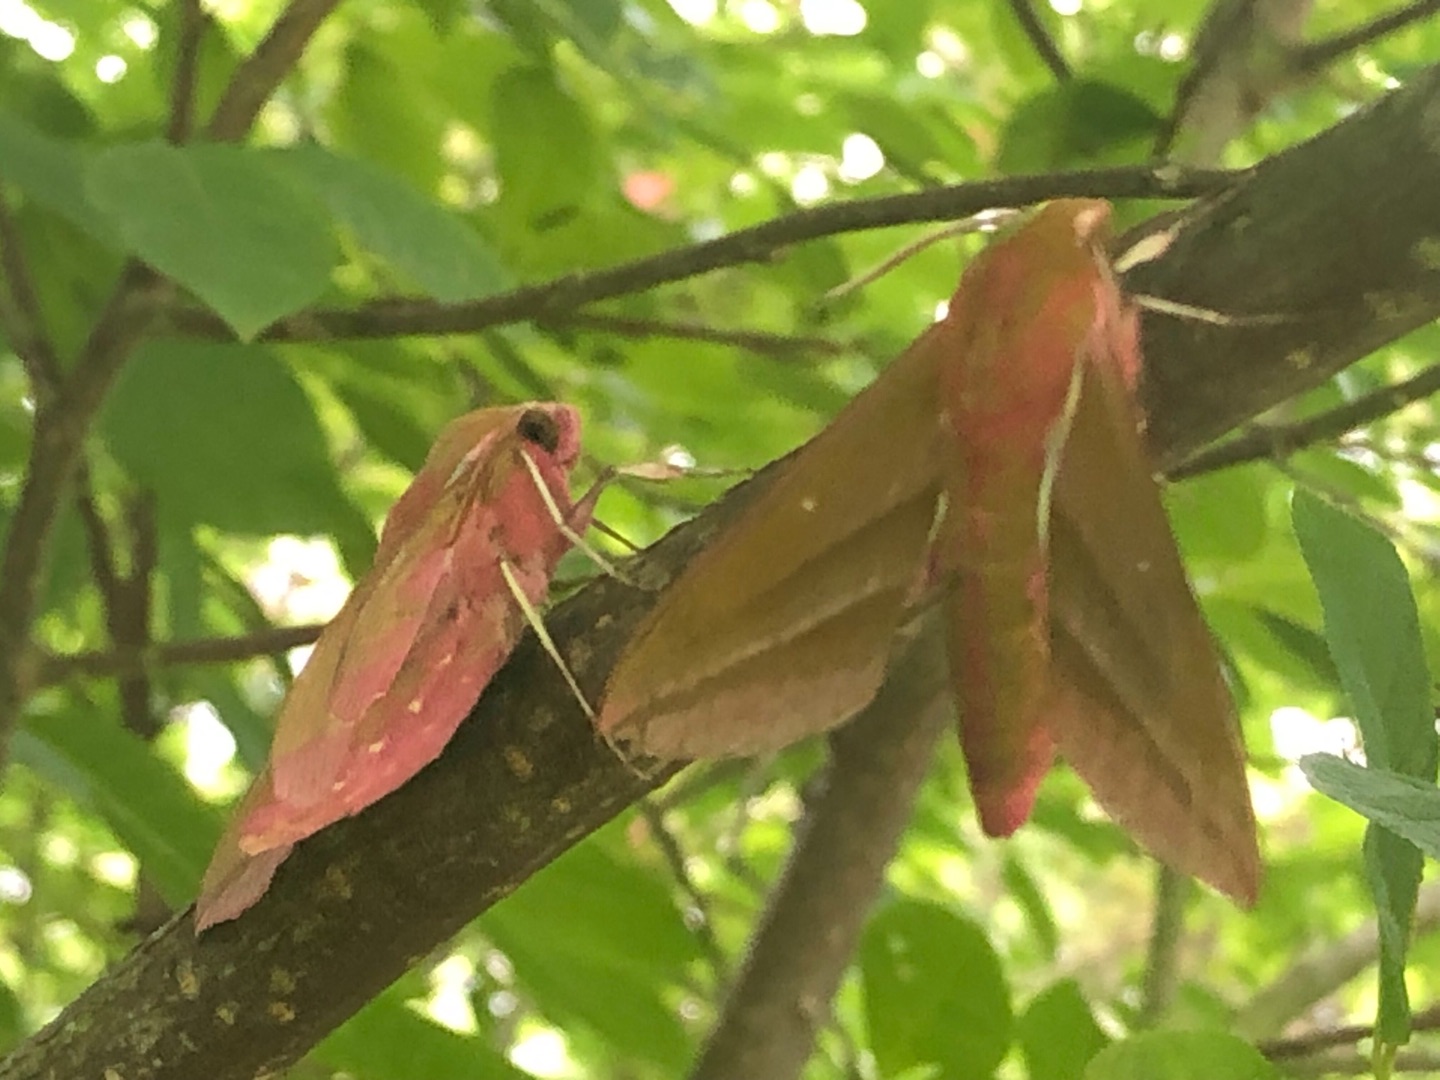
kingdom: Animalia
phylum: Arthropoda
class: Insecta
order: Lepidoptera
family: Sphingidae
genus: Deilephila
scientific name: Deilephila elpenor
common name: Dueurtsværmer
